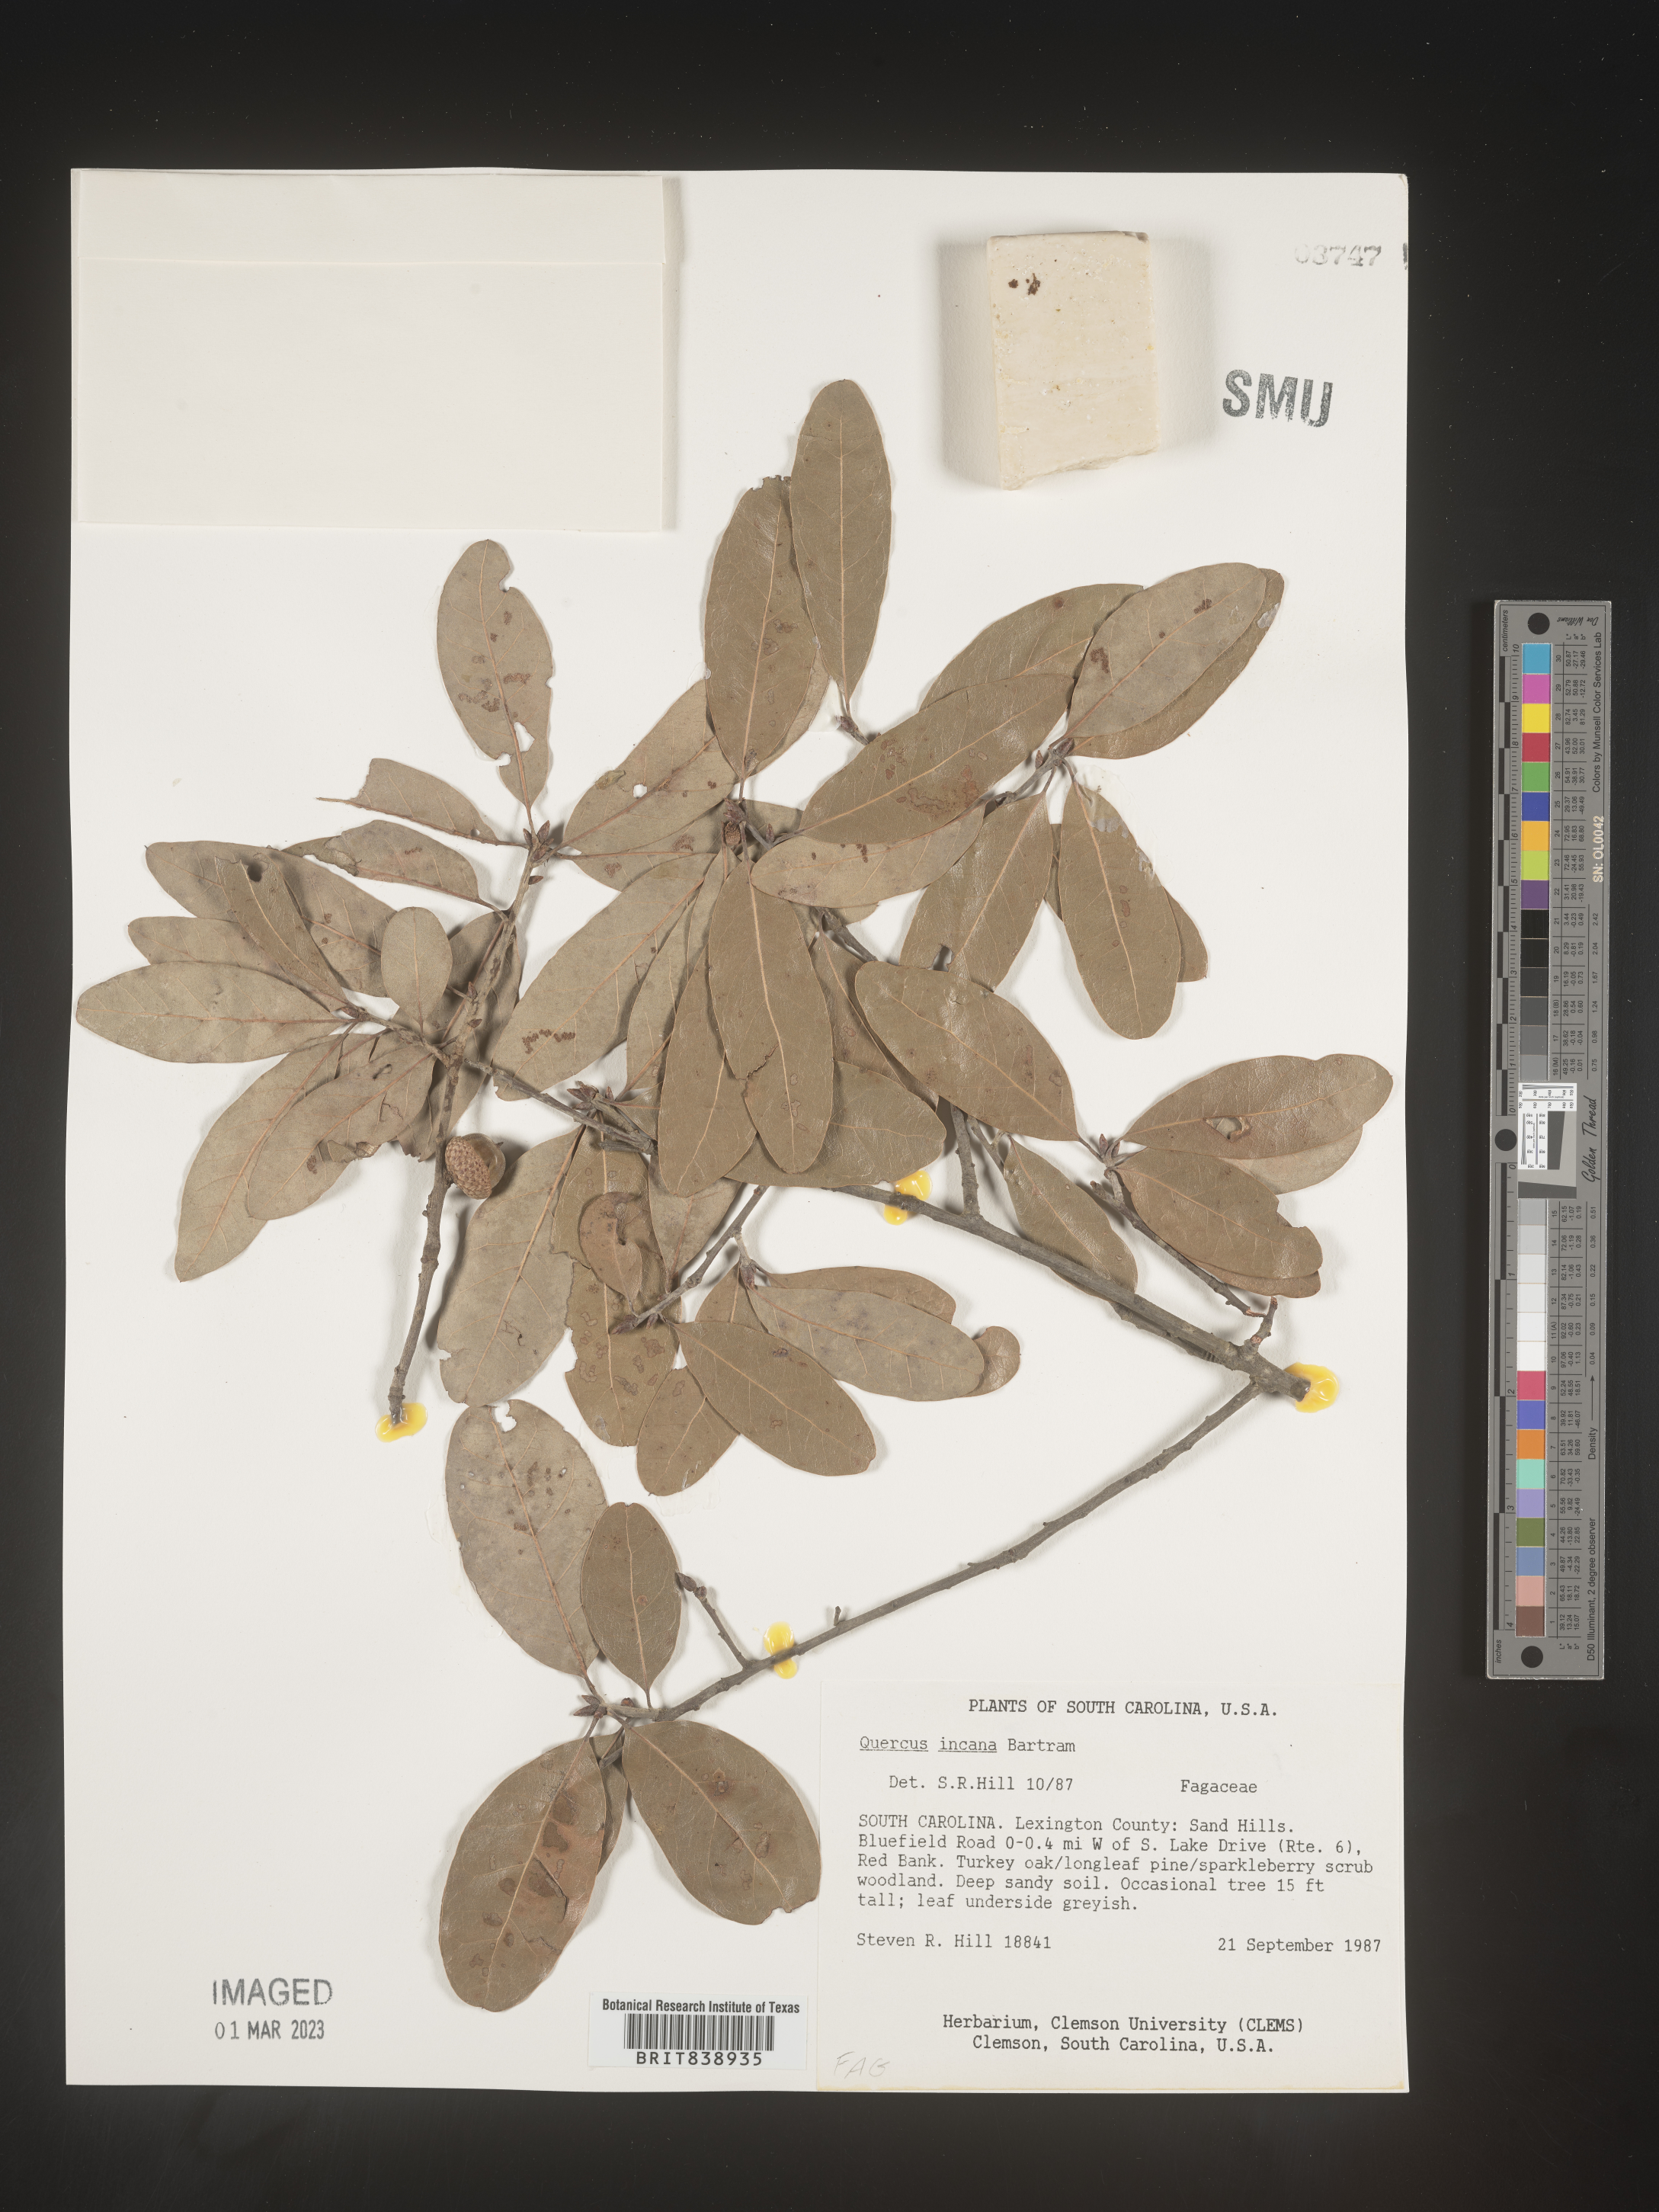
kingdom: Plantae
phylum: Tracheophyta
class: Magnoliopsida
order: Fagales
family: Fagaceae
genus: Quercus
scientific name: Quercus incana
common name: Bluejack oak
